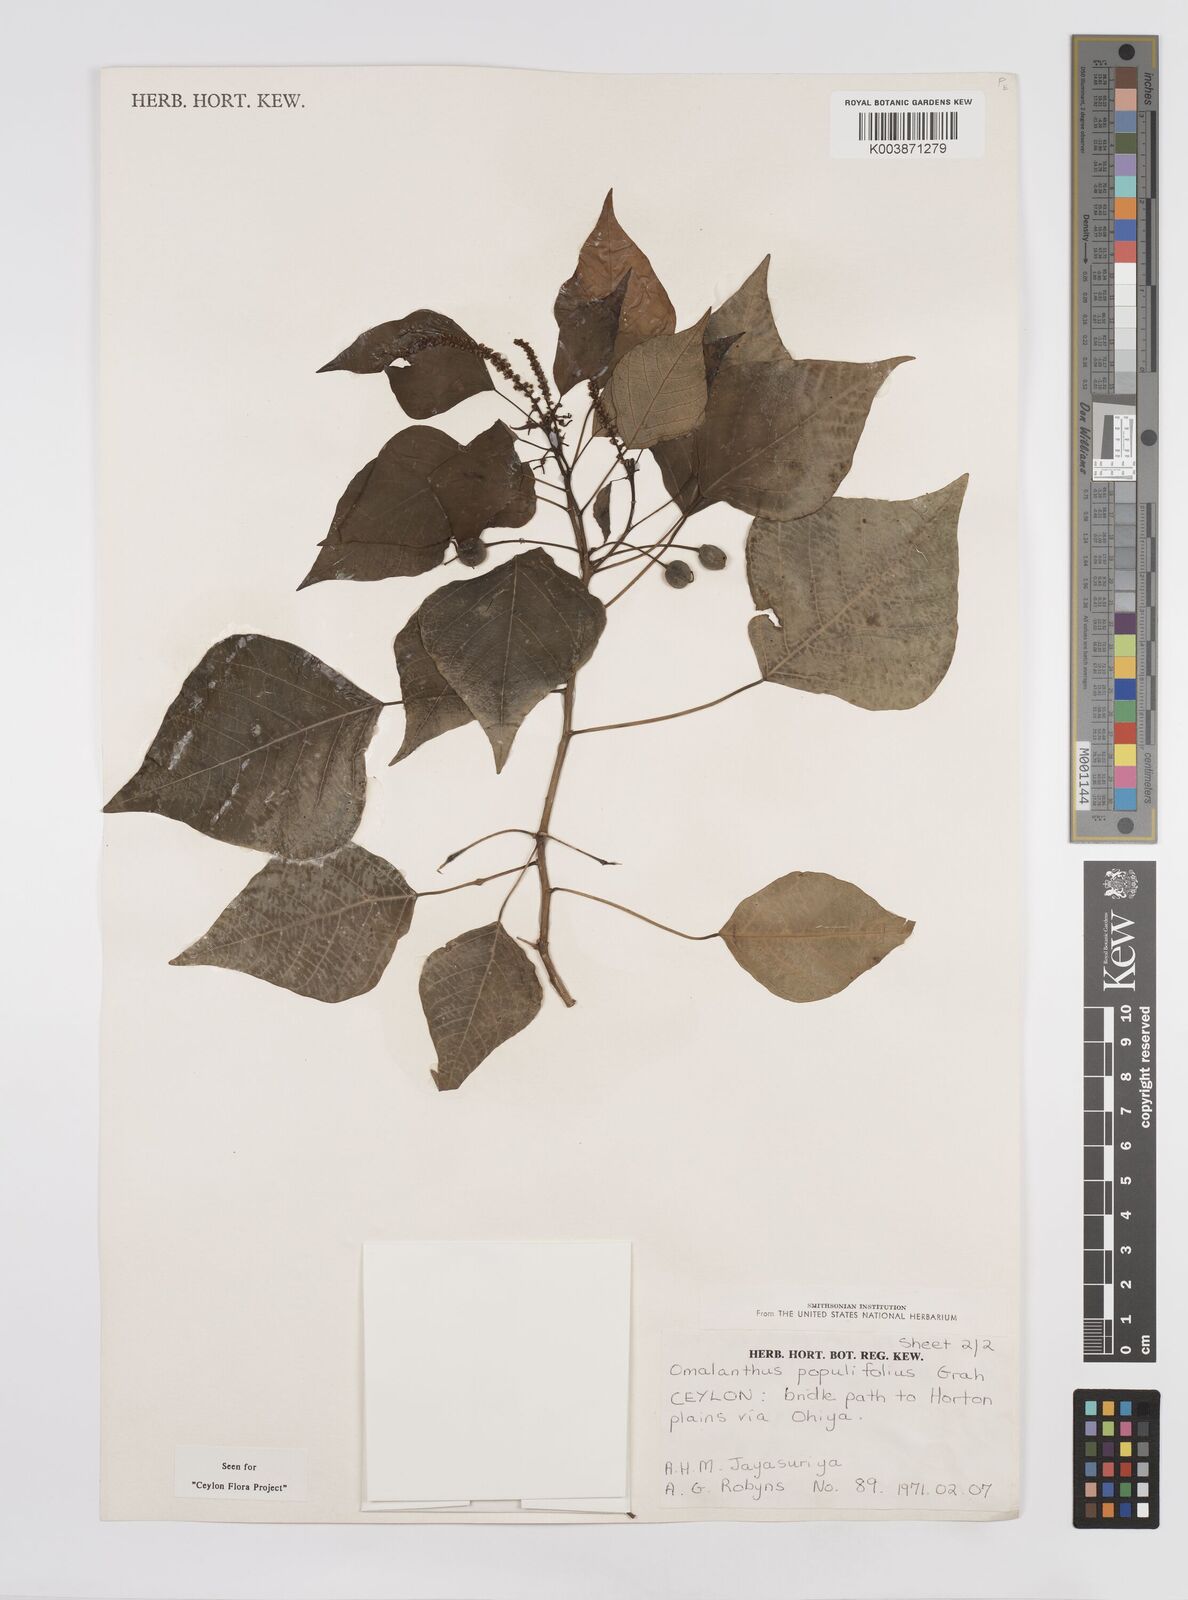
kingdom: Plantae
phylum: Tracheophyta
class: Magnoliopsida
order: Malpighiales
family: Euphorbiaceae
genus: Homalanthus
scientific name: Homalanthus populneus
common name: Spurge
